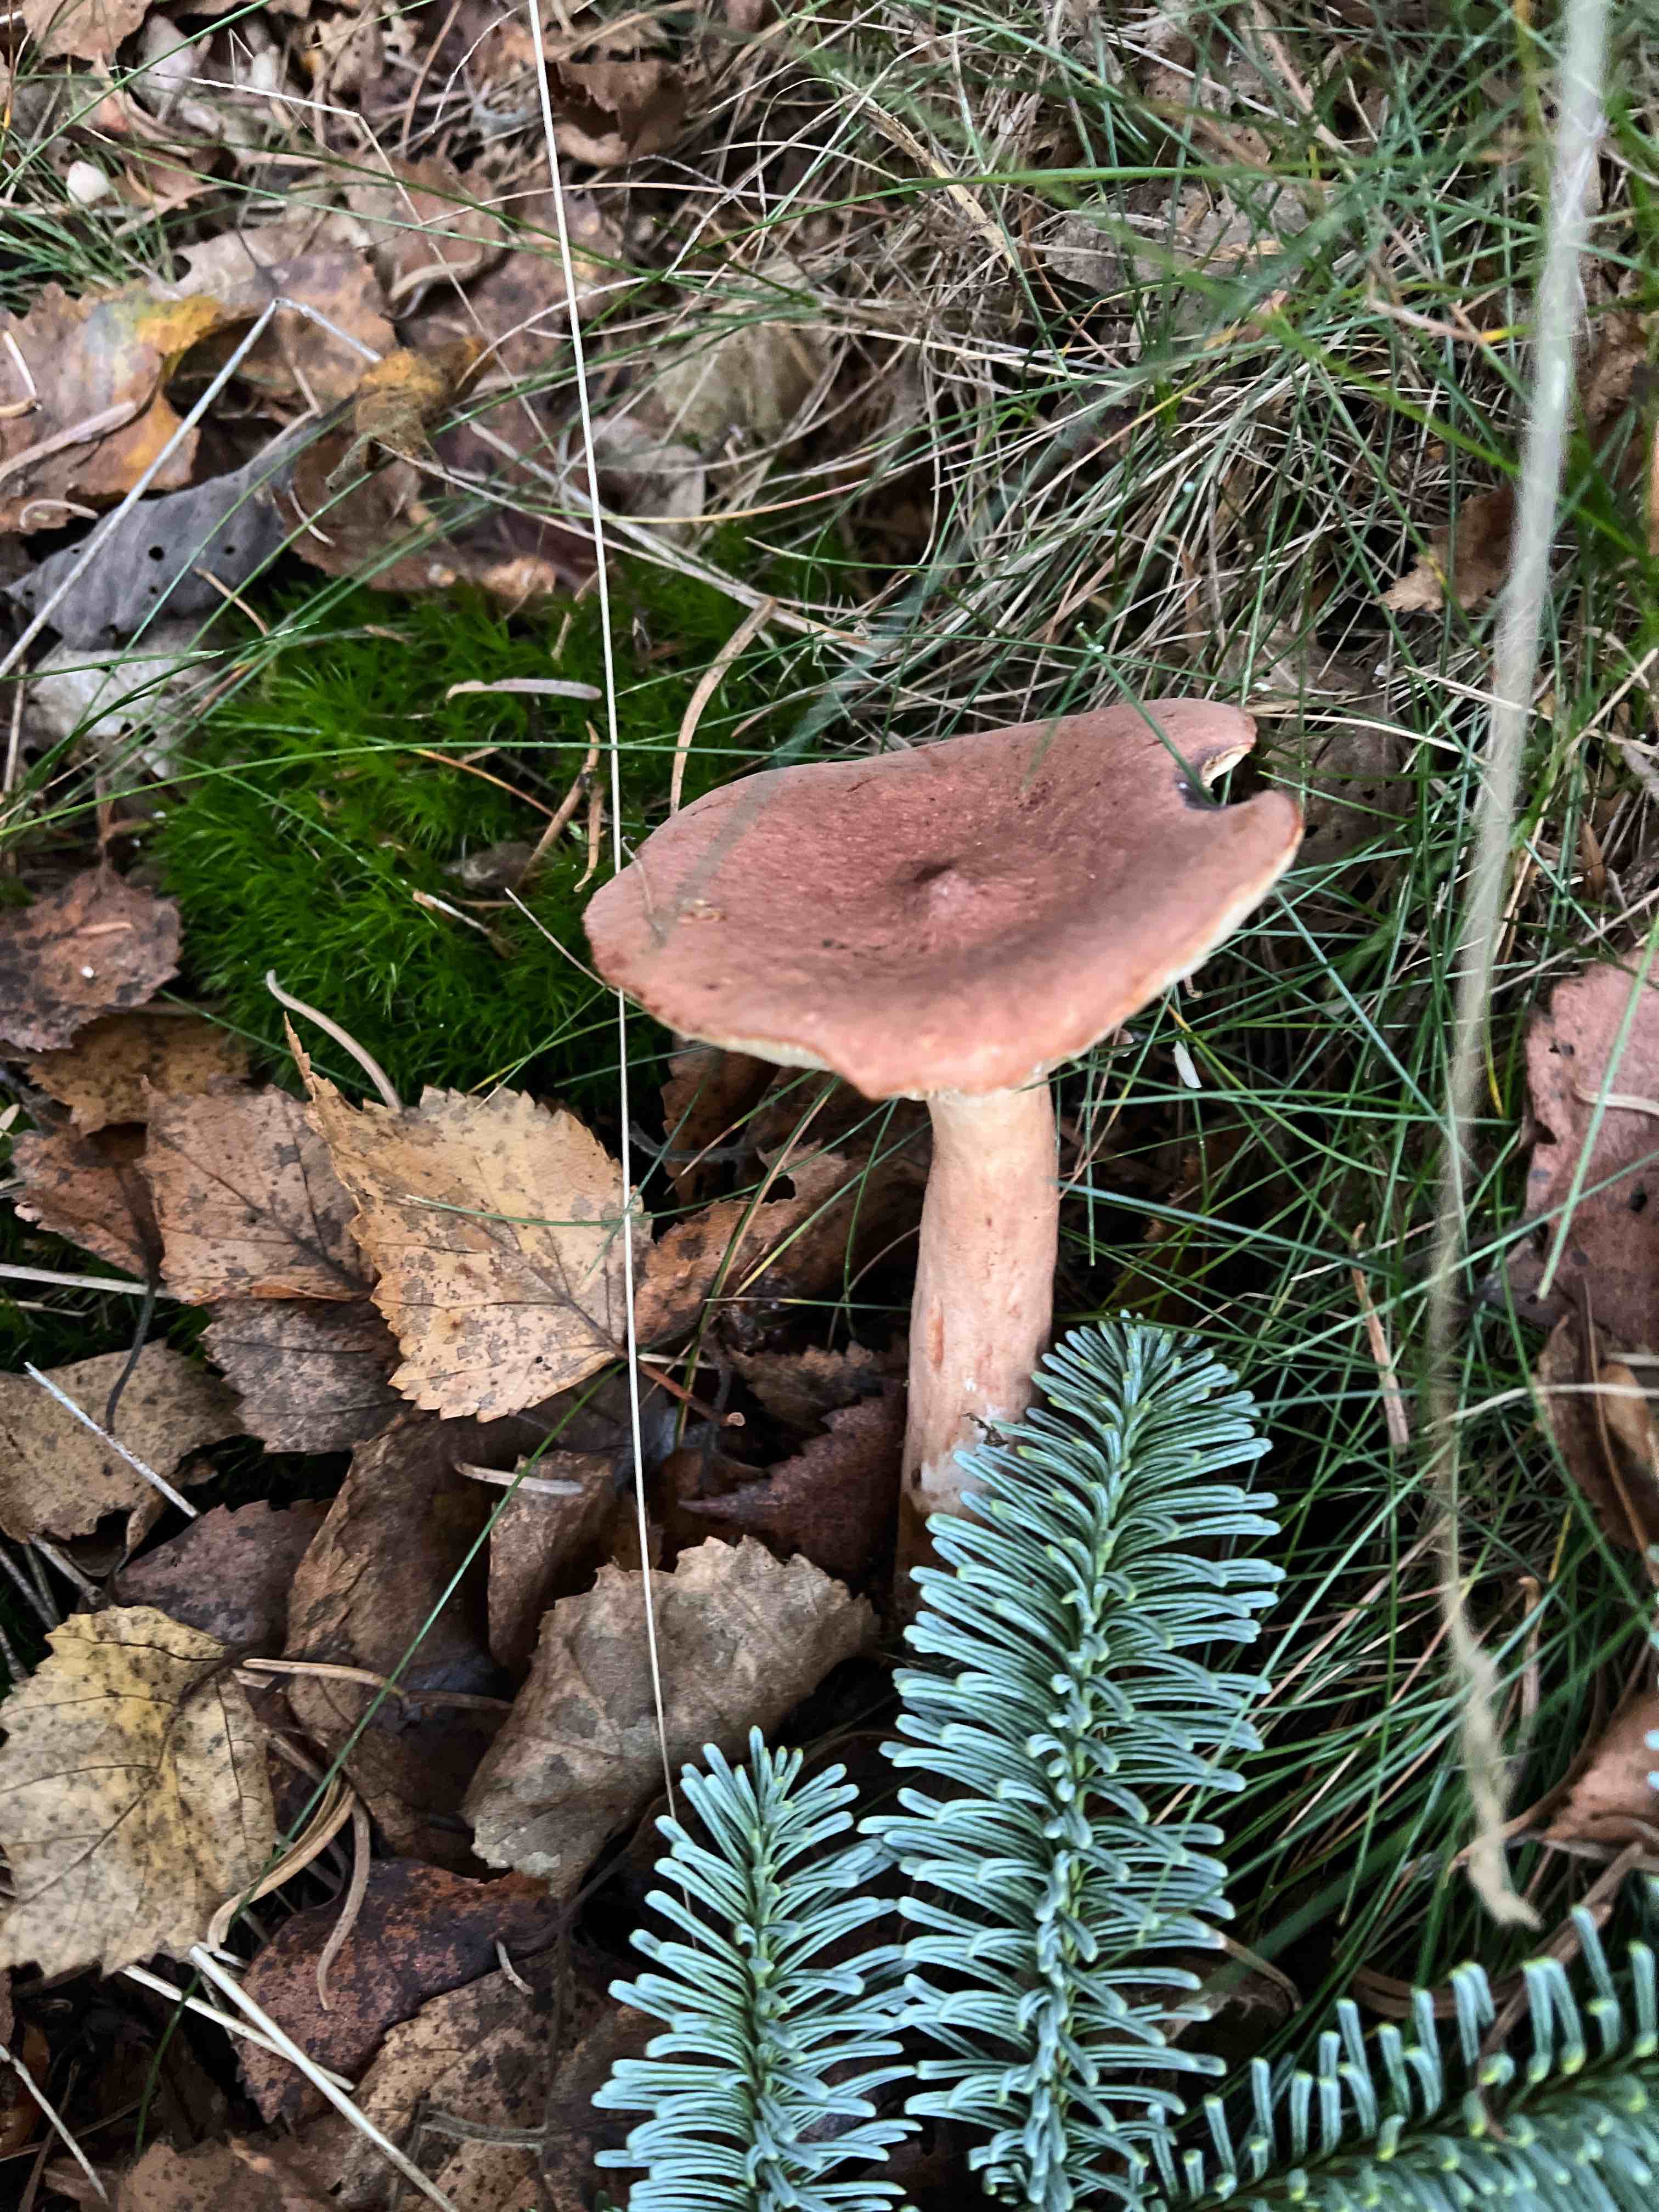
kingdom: Fungi
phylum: Basidiomycota
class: Agaricomycetes
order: Russulales
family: Russulaceae
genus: Lactarius
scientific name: Lactarius rufus
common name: rødbrun mælkehat
